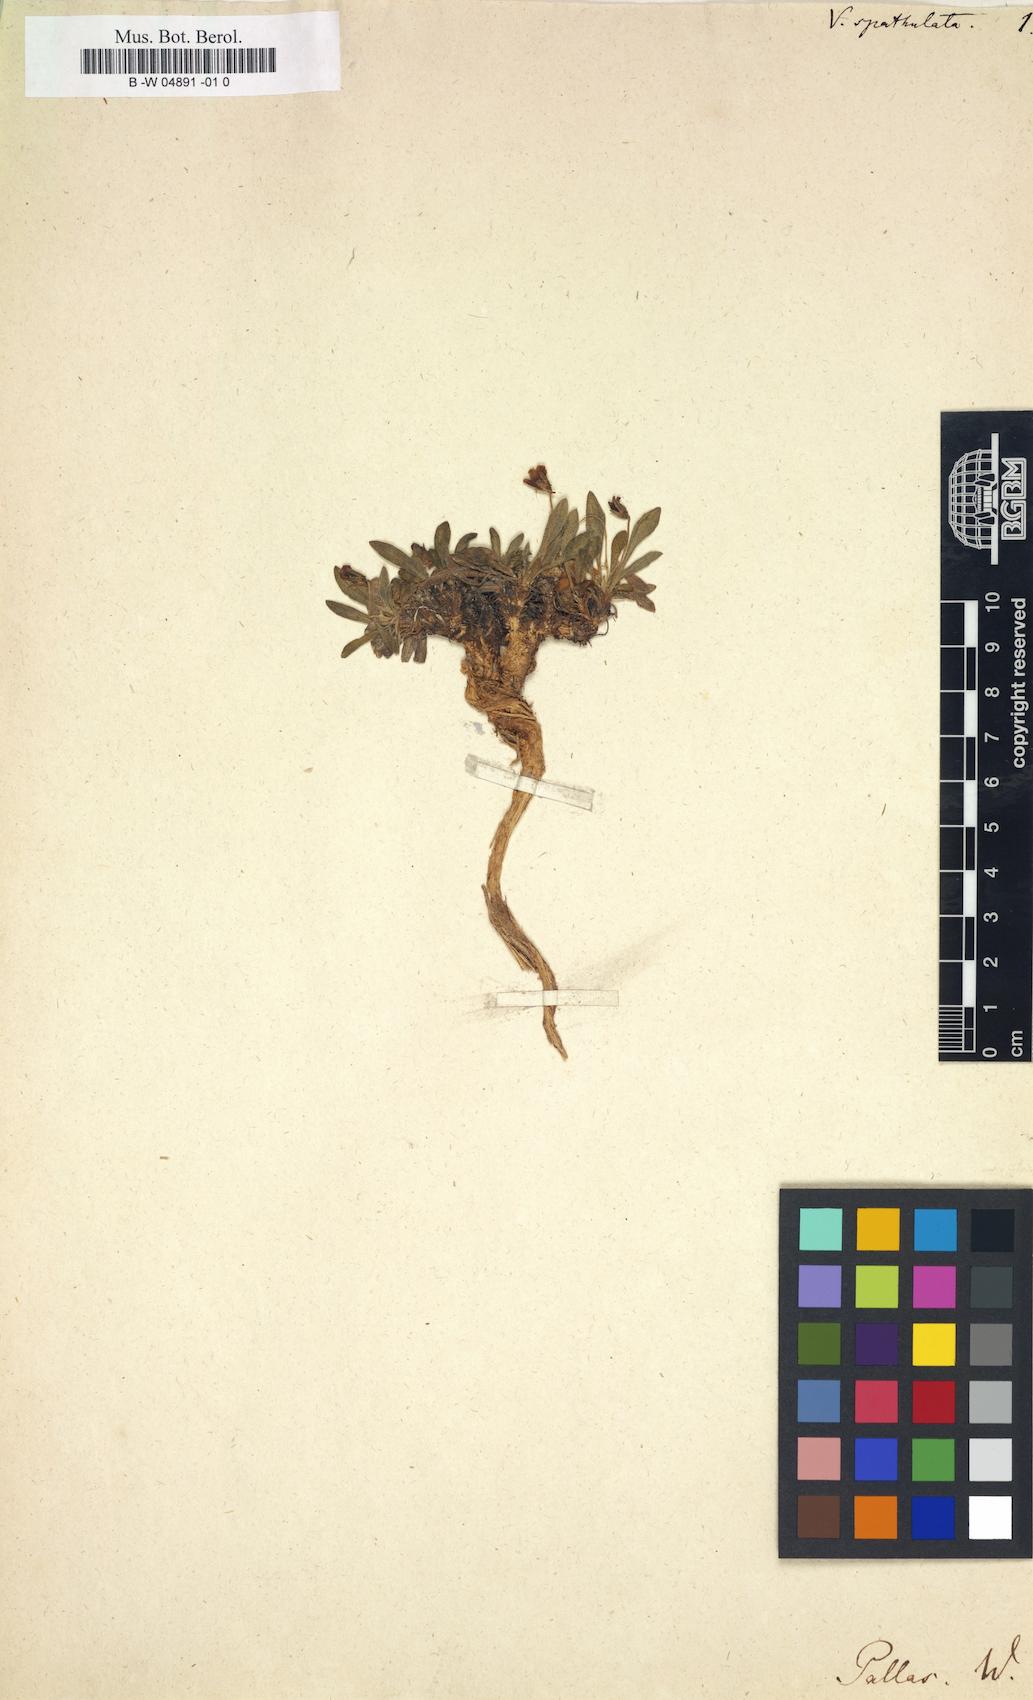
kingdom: Plantae
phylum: Tracheophyta
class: Magnoliopsida
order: Malpighiales
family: Violaceae
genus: Viola
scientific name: Viola spathulata
